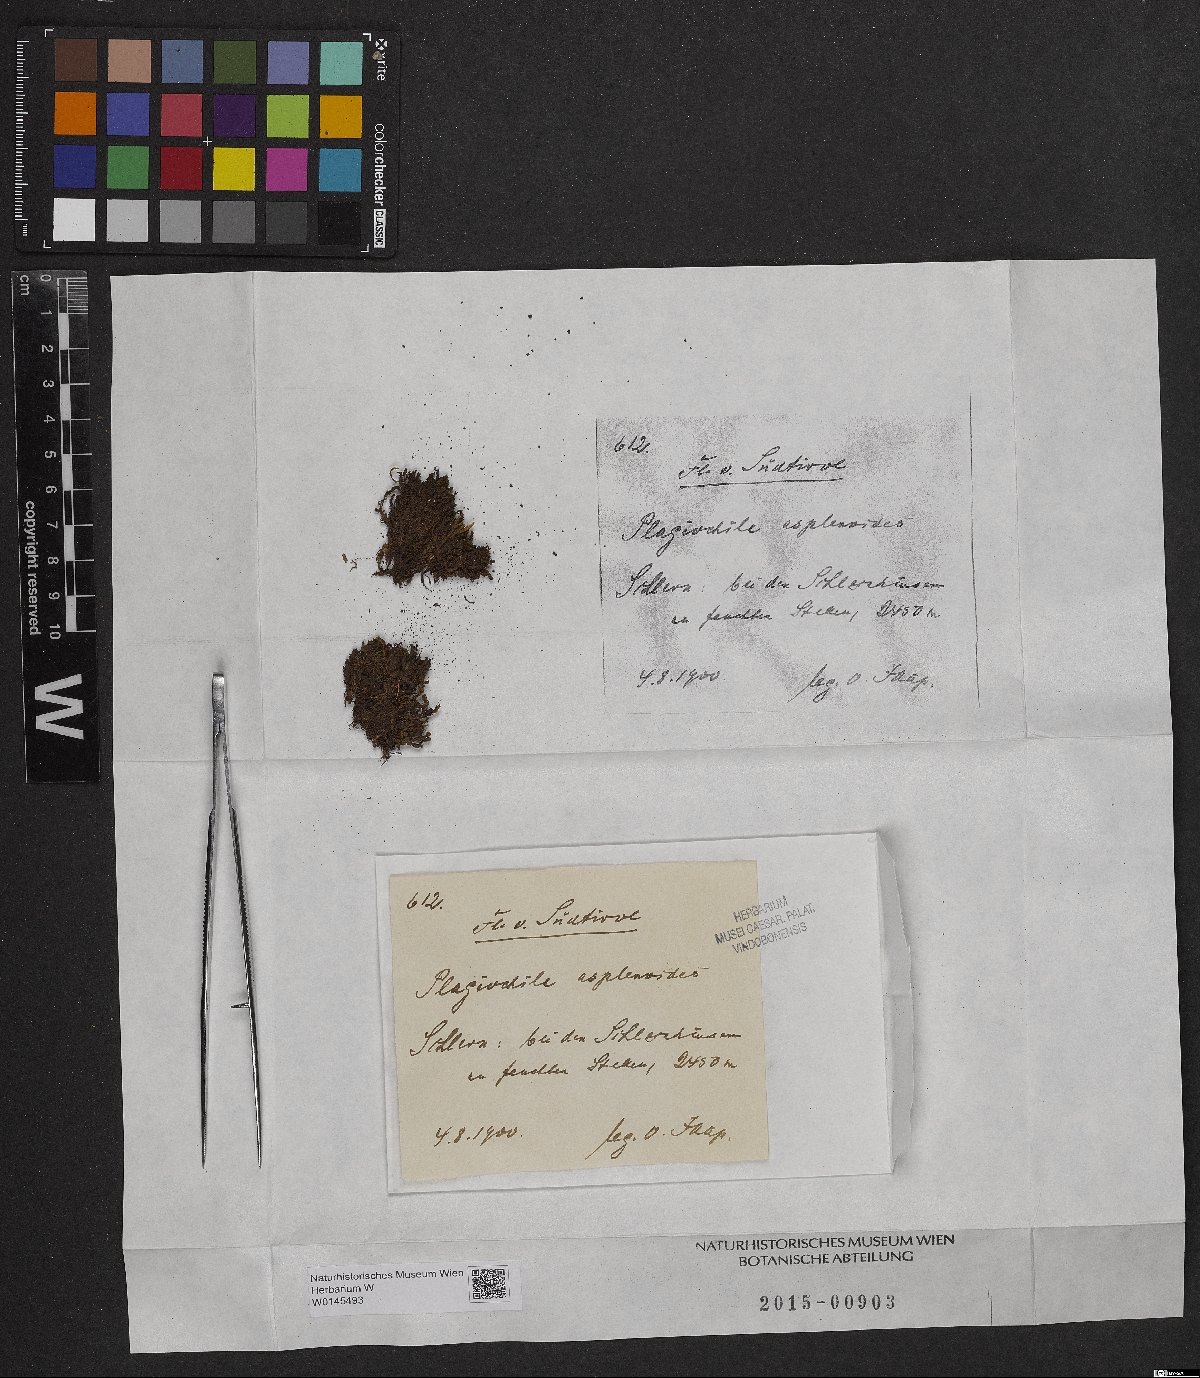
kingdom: Plantae
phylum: Marchantiophyta
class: Jungermanniopsida
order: Jungermanniales
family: Plagiochilaceae
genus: Plagiochila
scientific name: Plagiochila asplenioides
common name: Greater featherwort
